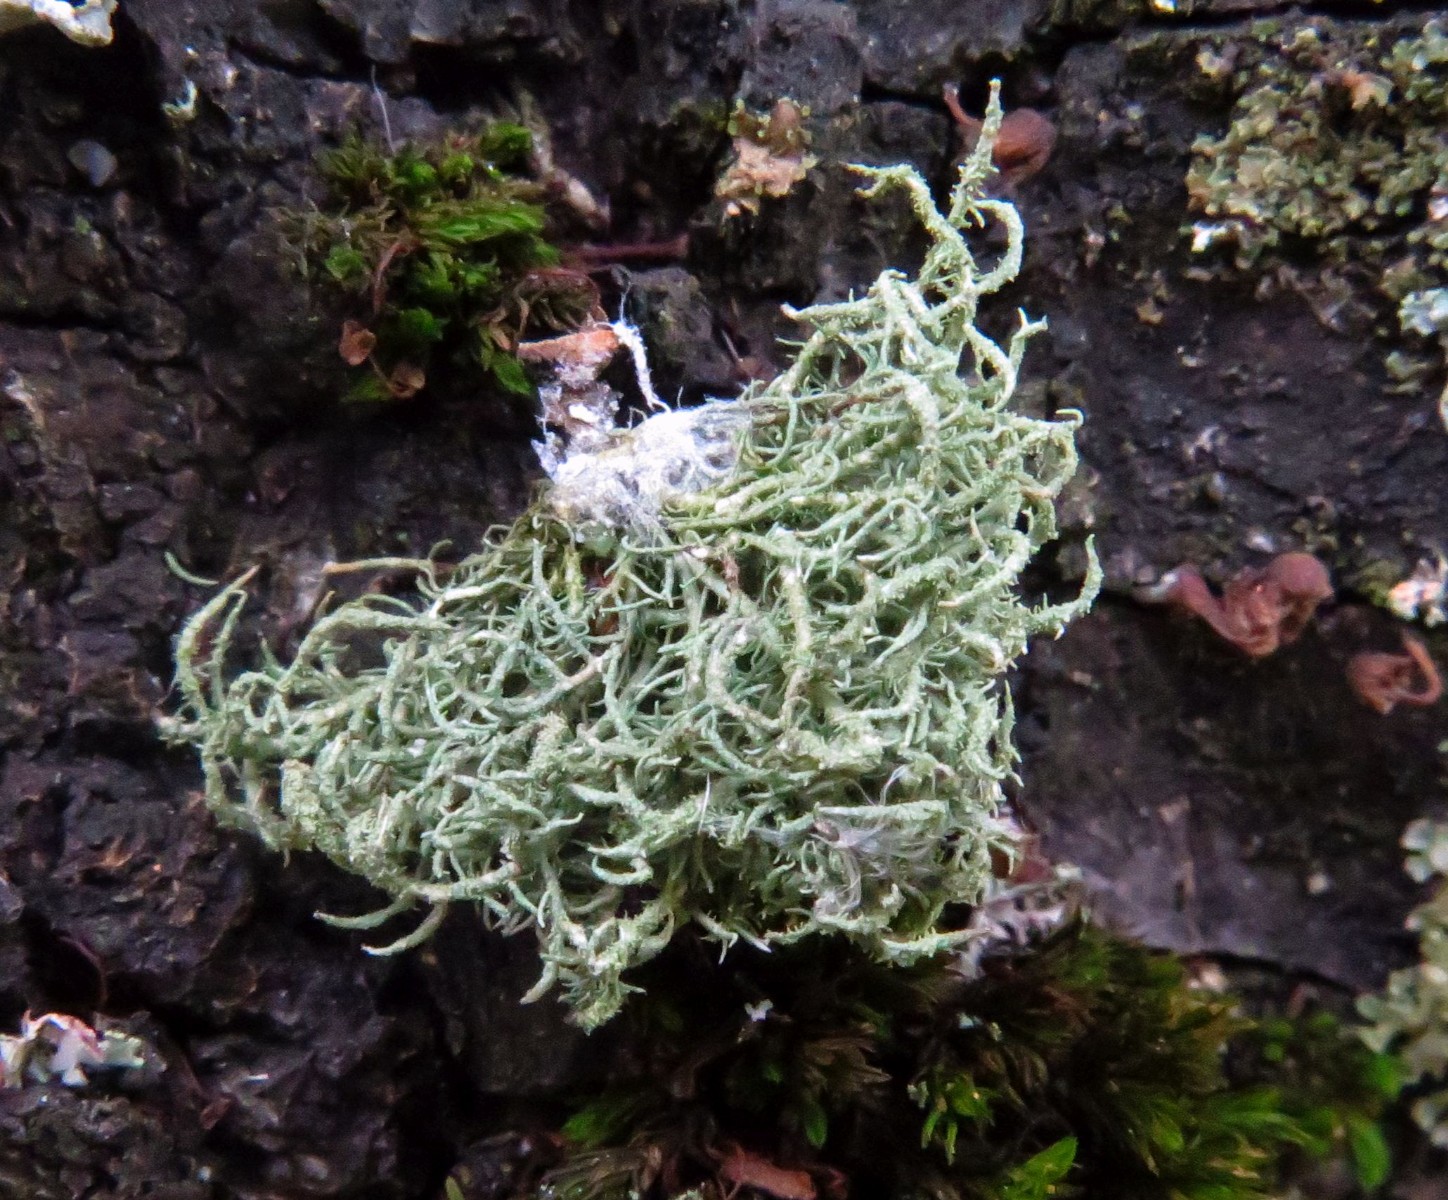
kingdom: Fungi
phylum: Ascomycota
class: Lecanoromycetes
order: Lecanorales
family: Parmeliaceae
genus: Usnea
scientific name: Usnea hirta
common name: liden skæglav
